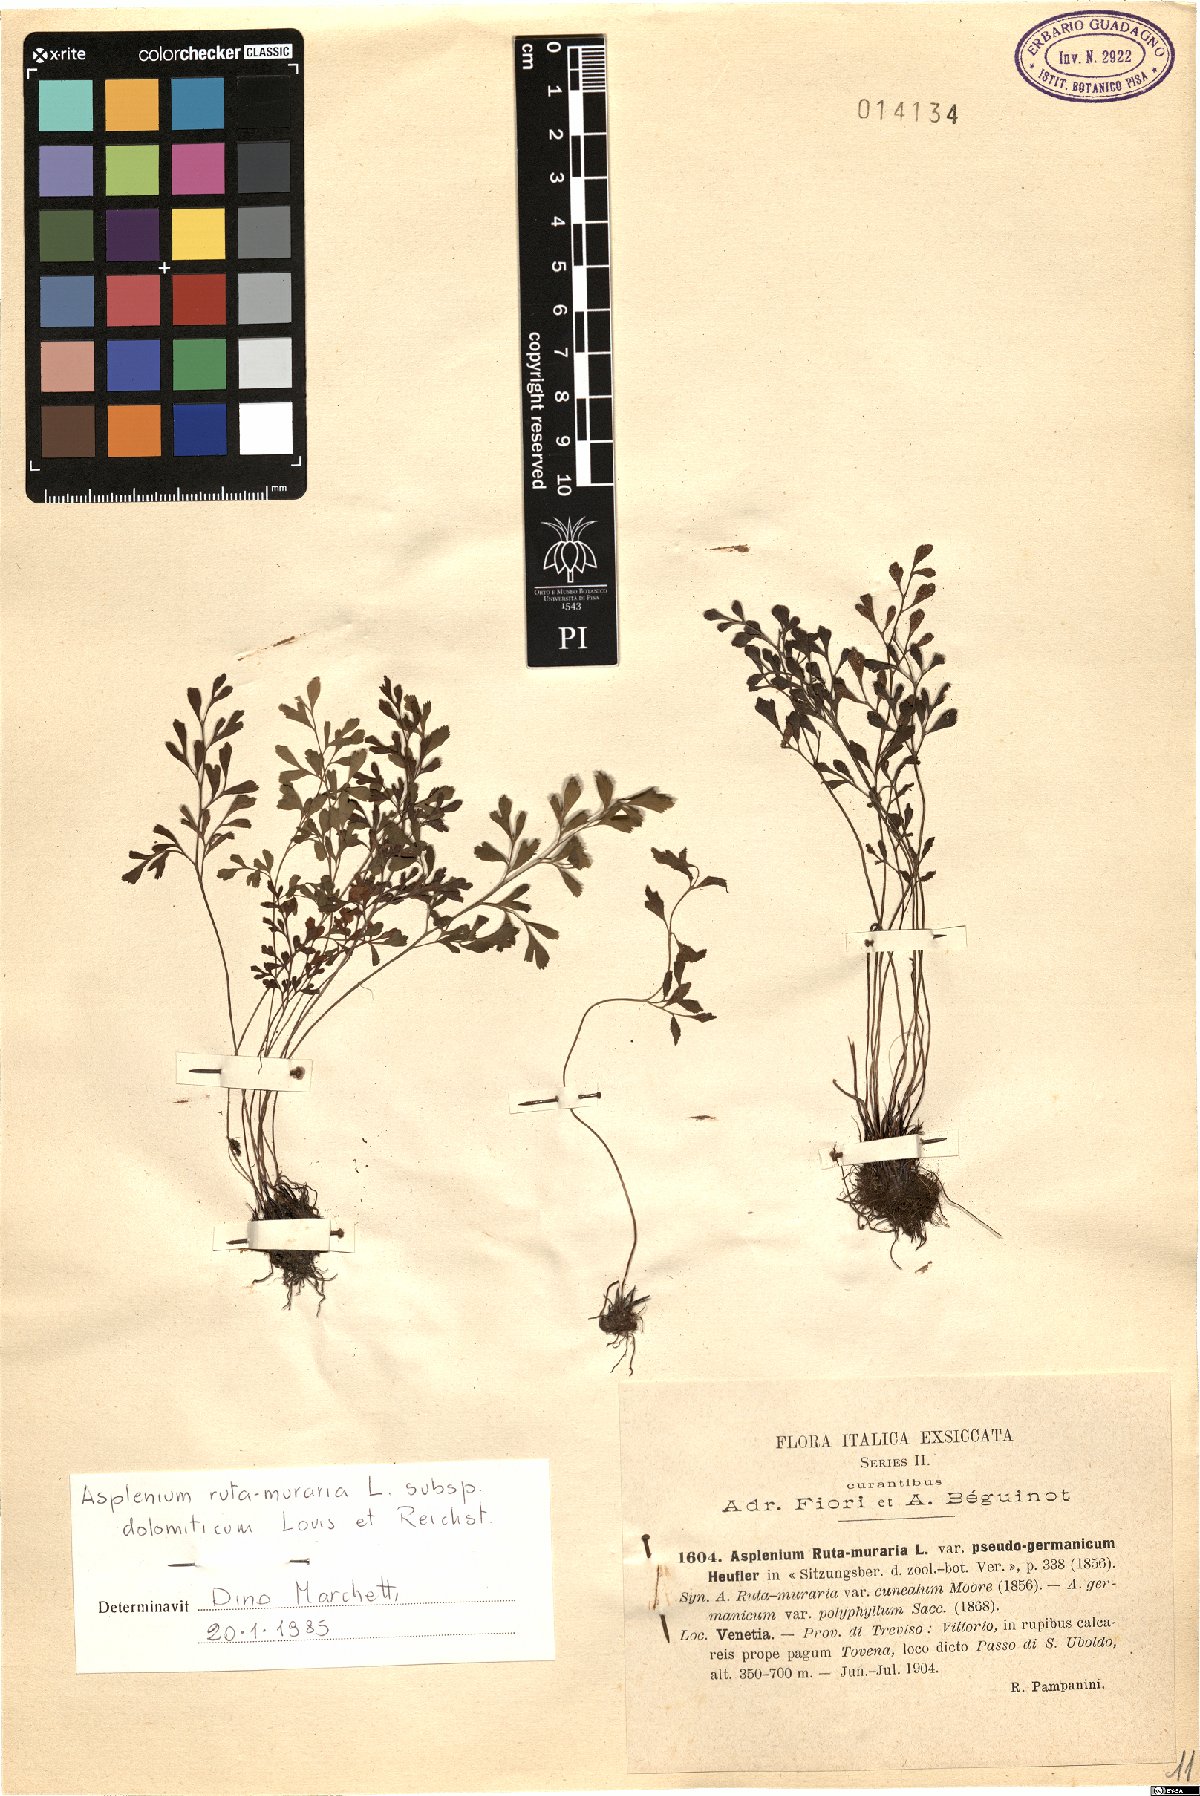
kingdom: Plantae
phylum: Tracheophyta
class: Polypodiopsida
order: Polypodiales
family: Aspleniaceae
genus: Asplenium
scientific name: Asplenium ruta-muraria
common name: Wall-rue
